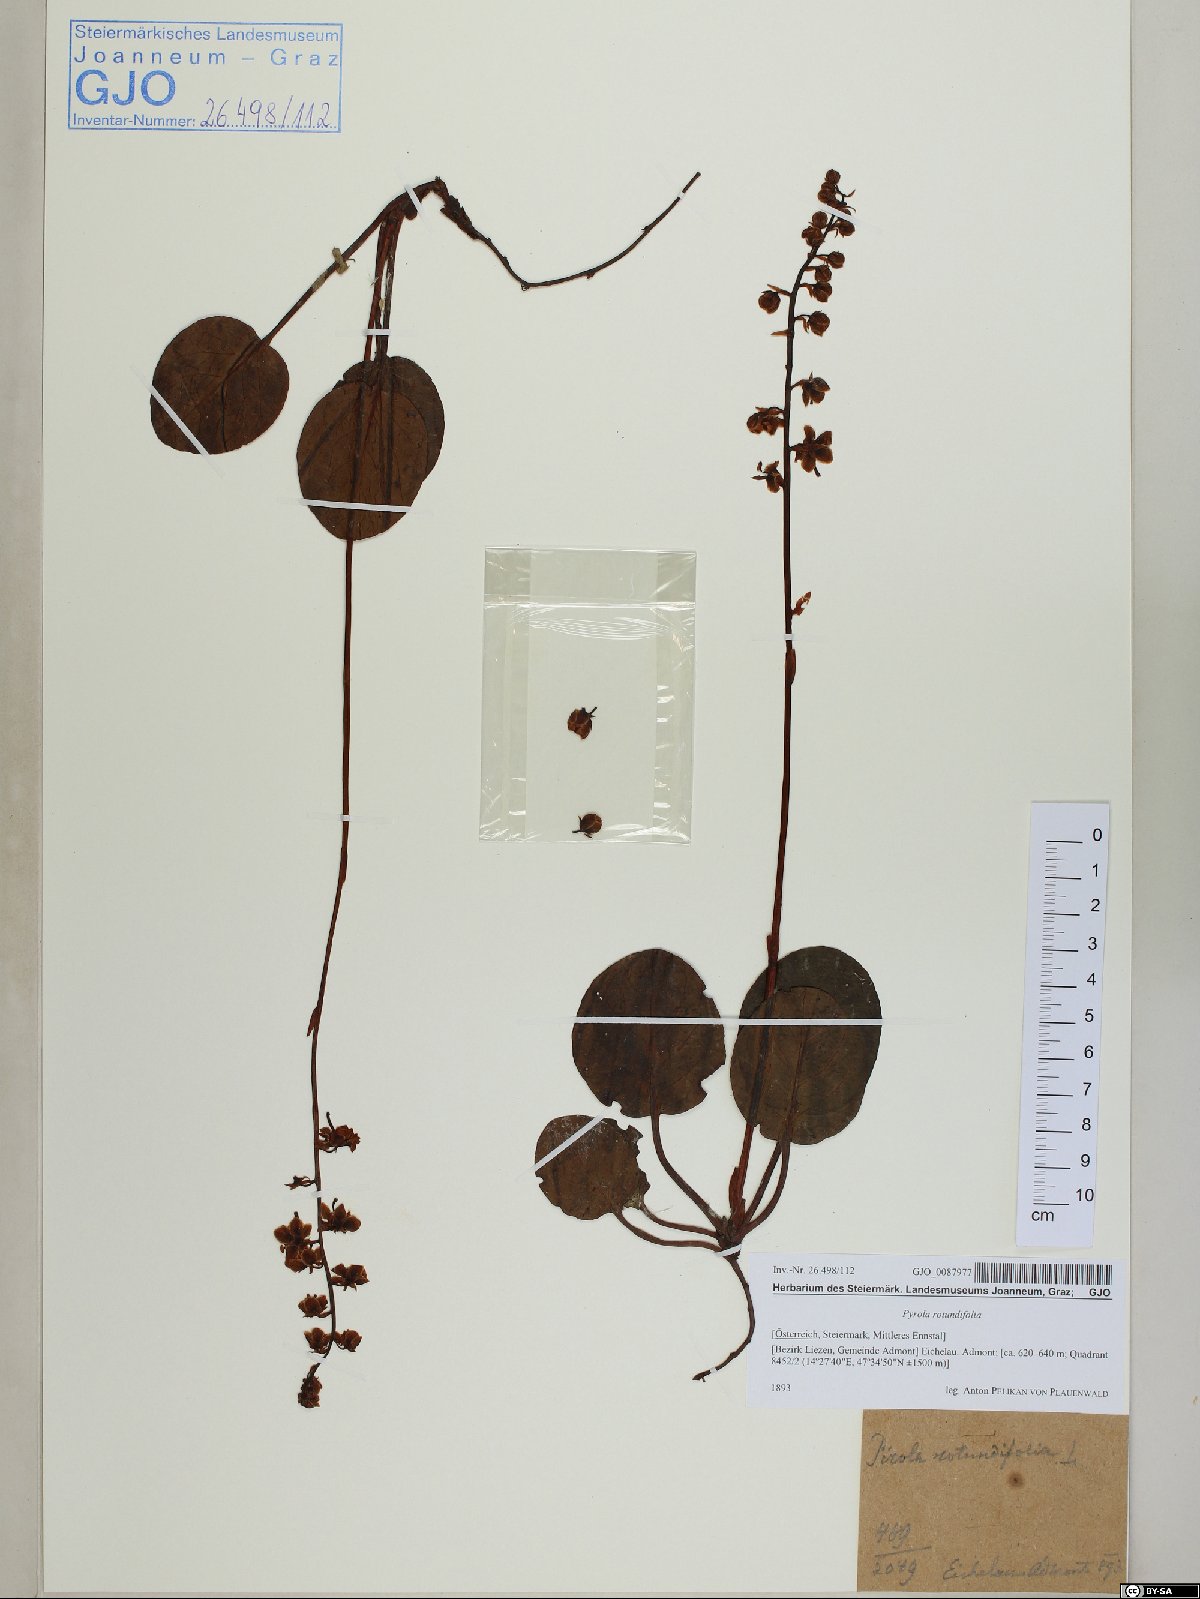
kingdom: Plantae
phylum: Tracheophyta
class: Magnoliopsida
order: Ericales
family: Ericaceae
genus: Pyrola
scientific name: Pyrola rotundifolia
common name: Round-leaved wintergreen
